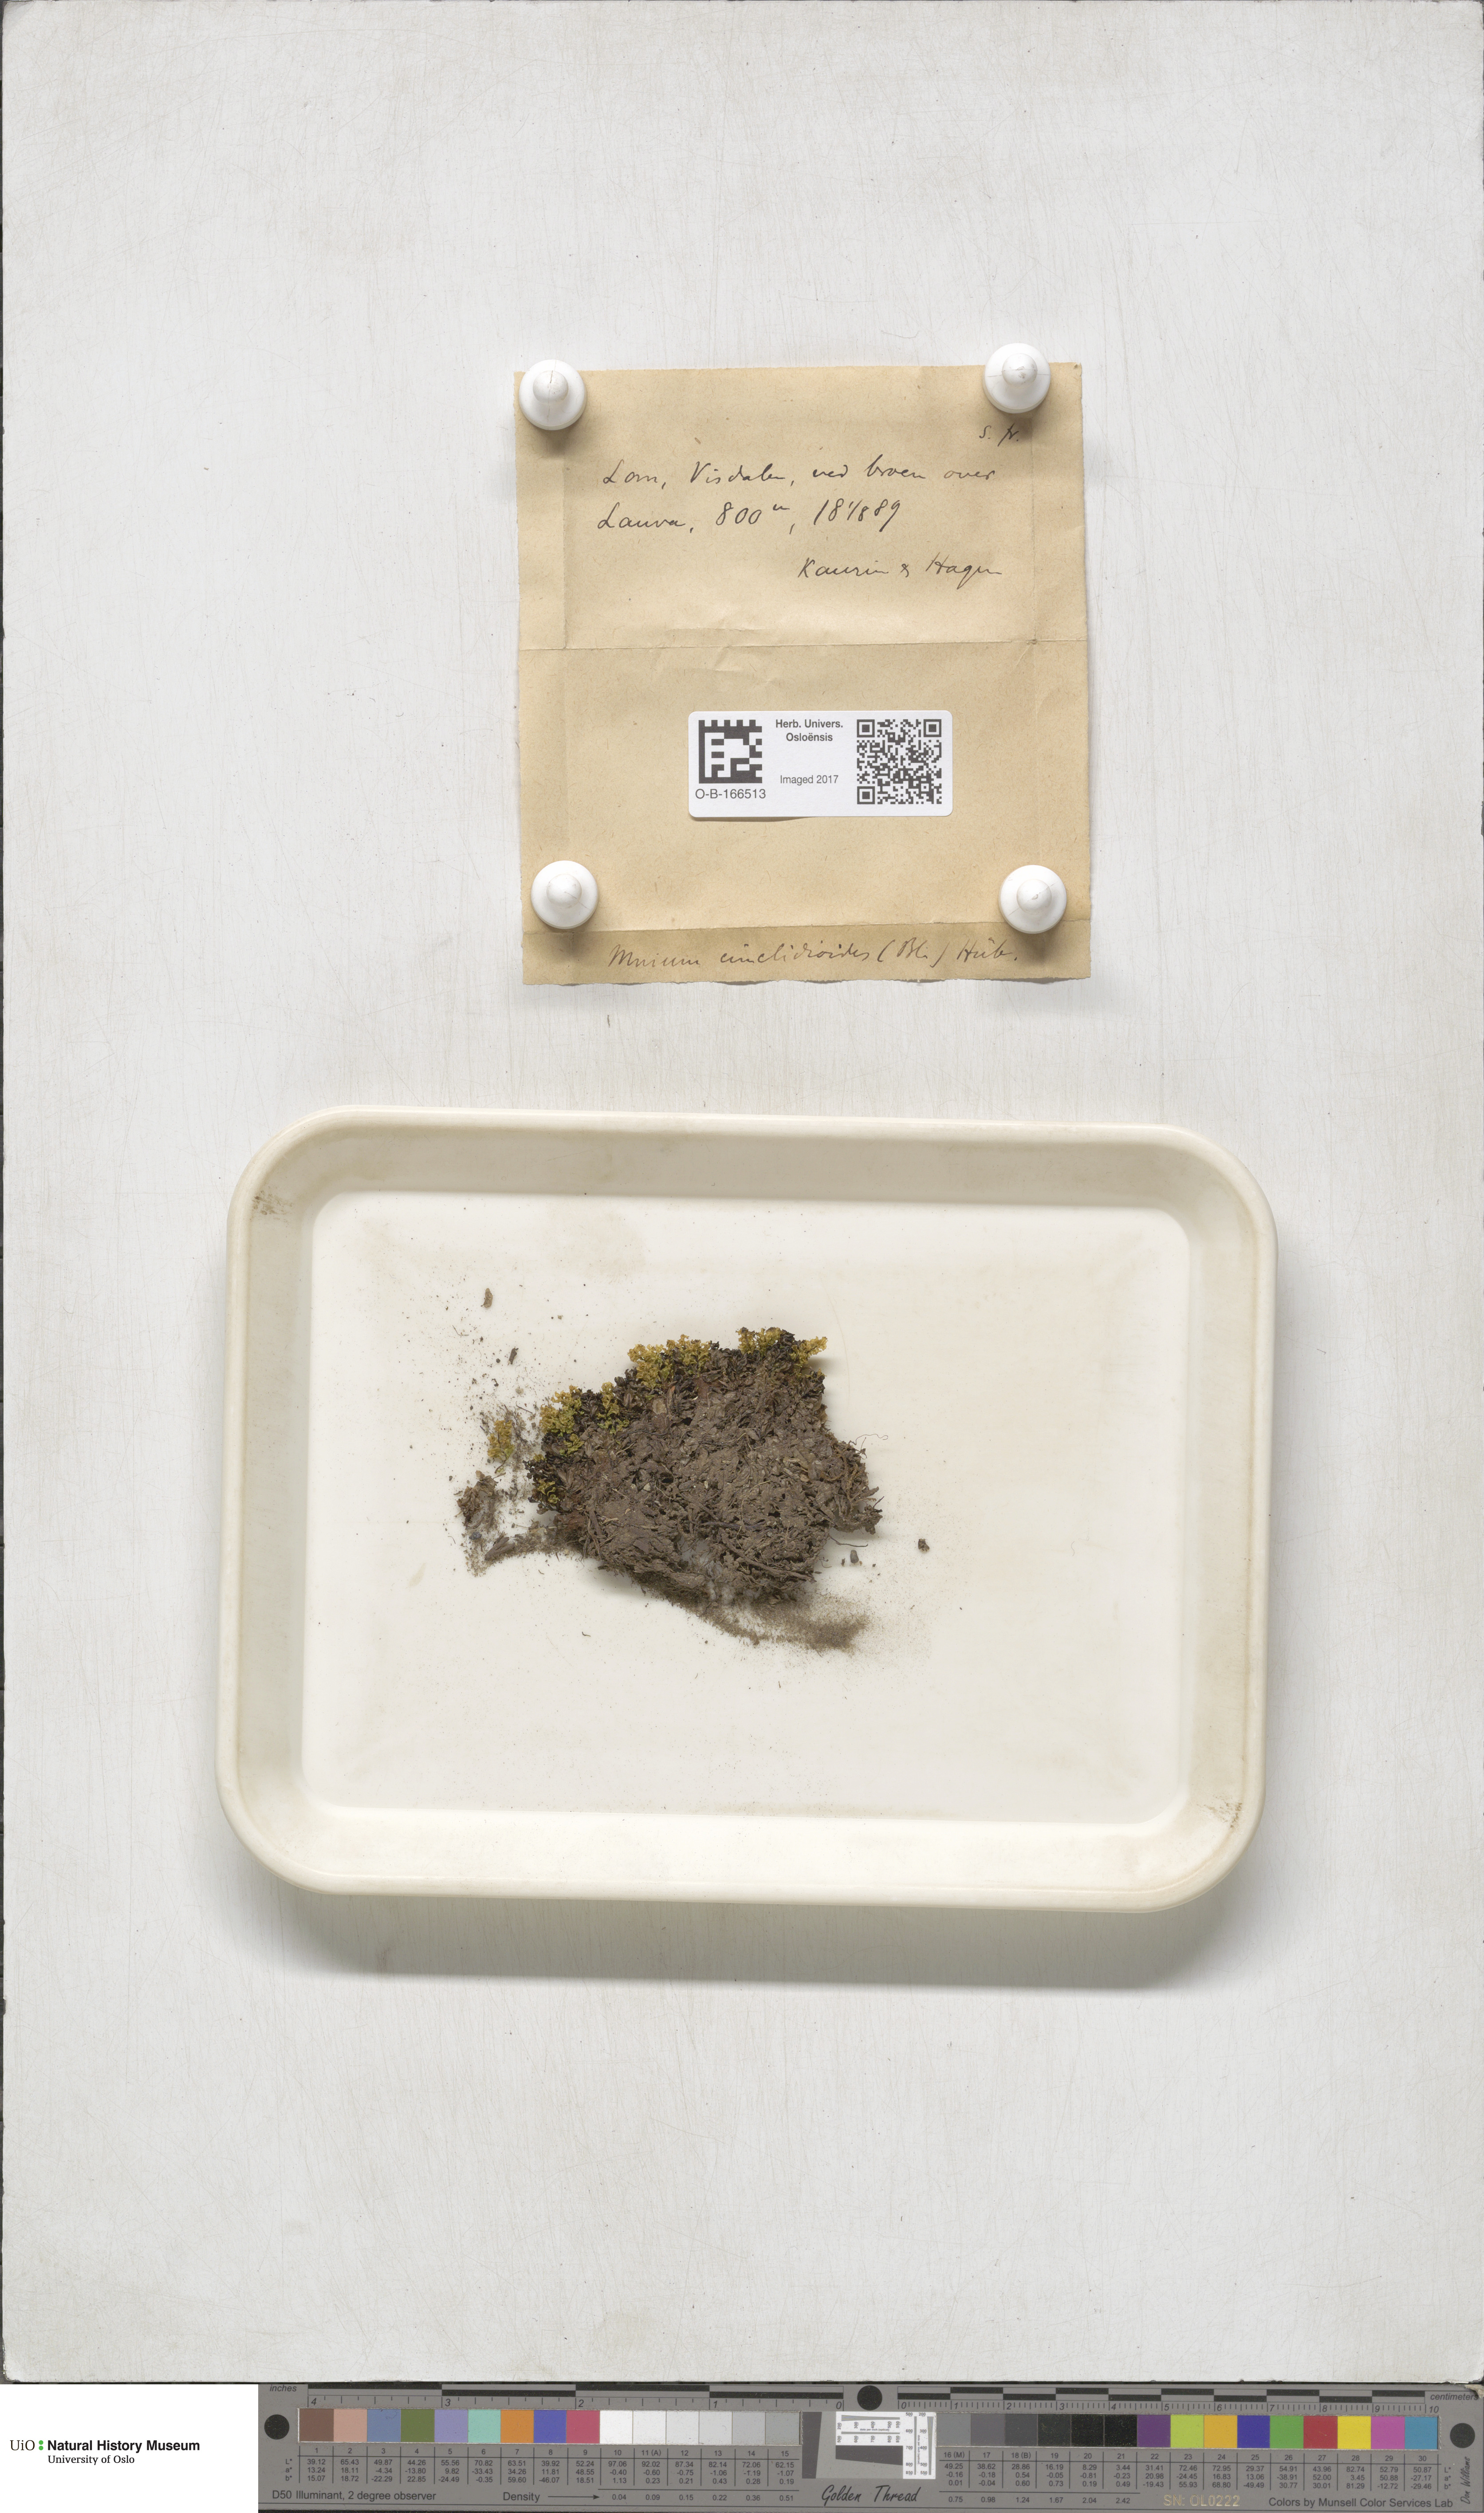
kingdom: Plantae
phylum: Bryophyta
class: Bryopsida
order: Bryales
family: Mniaceae
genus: Pseudobryum
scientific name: Pseudobryum cinclidioides
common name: River thyme moss
